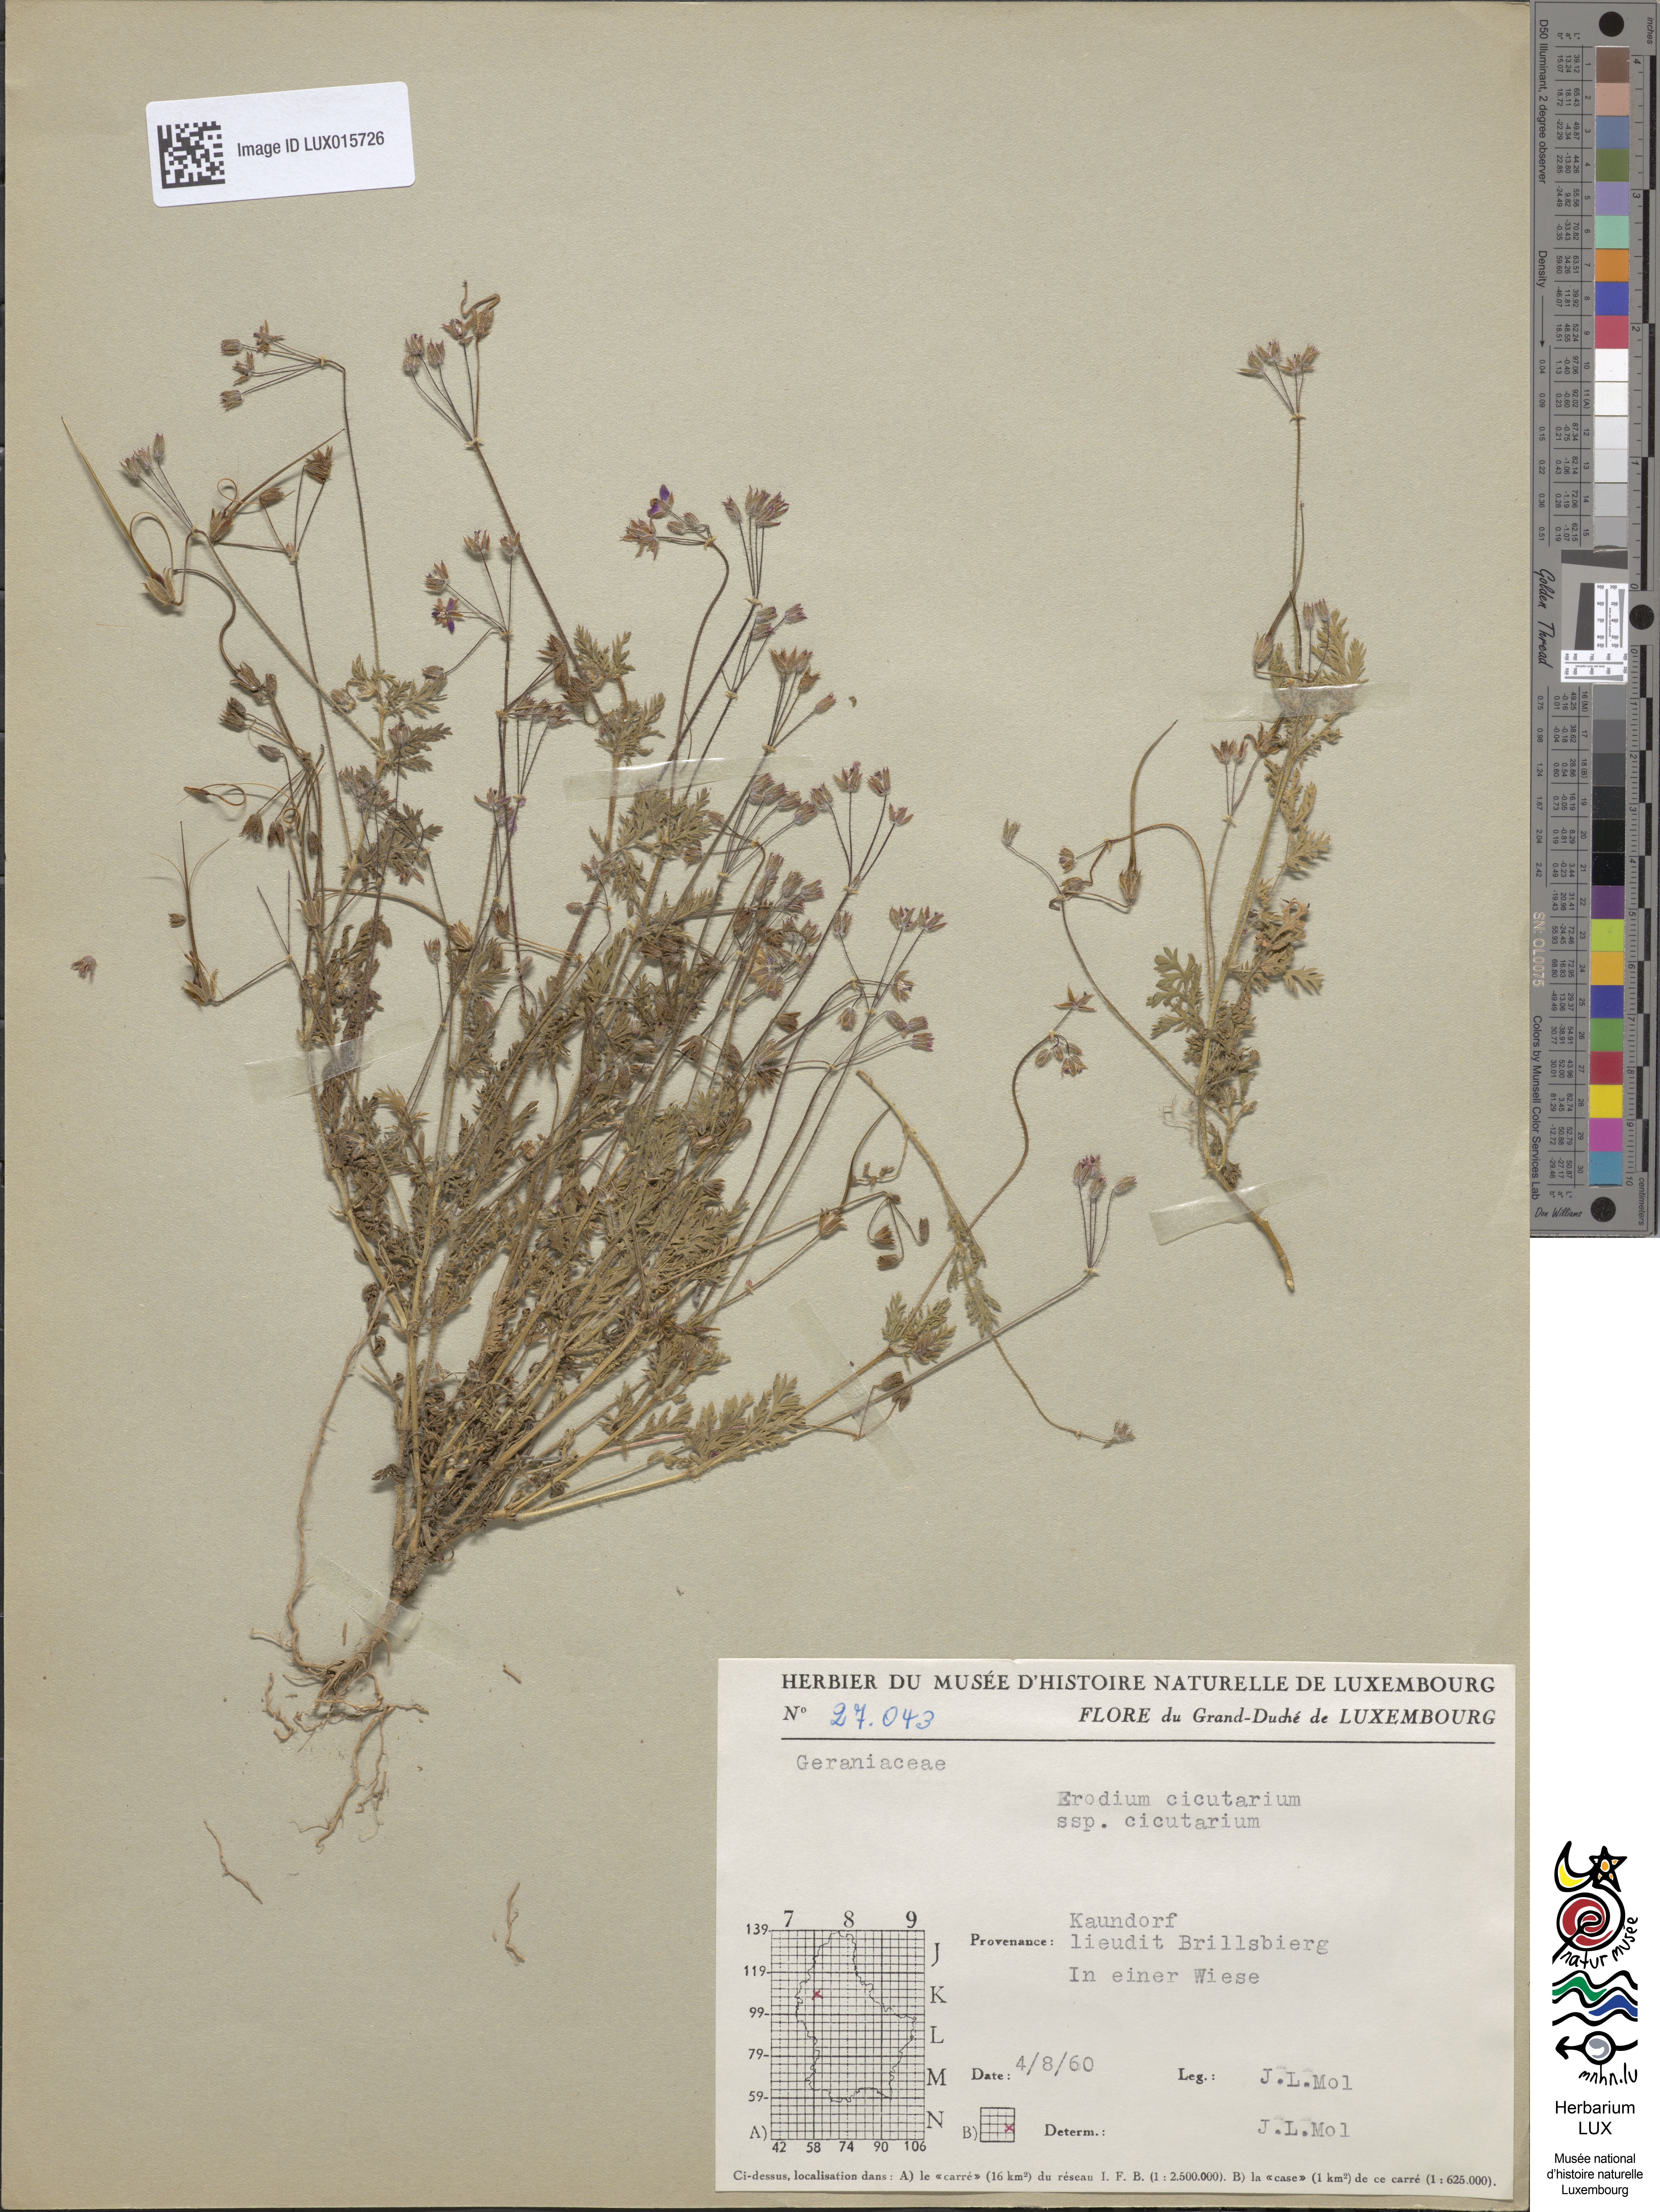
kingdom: Plantae
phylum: Tracheophyta
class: Magnoliopsida
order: Geraniales
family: Geraniaceae
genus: Erodium
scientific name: Erodium cicutarium
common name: Common stork's-bill
